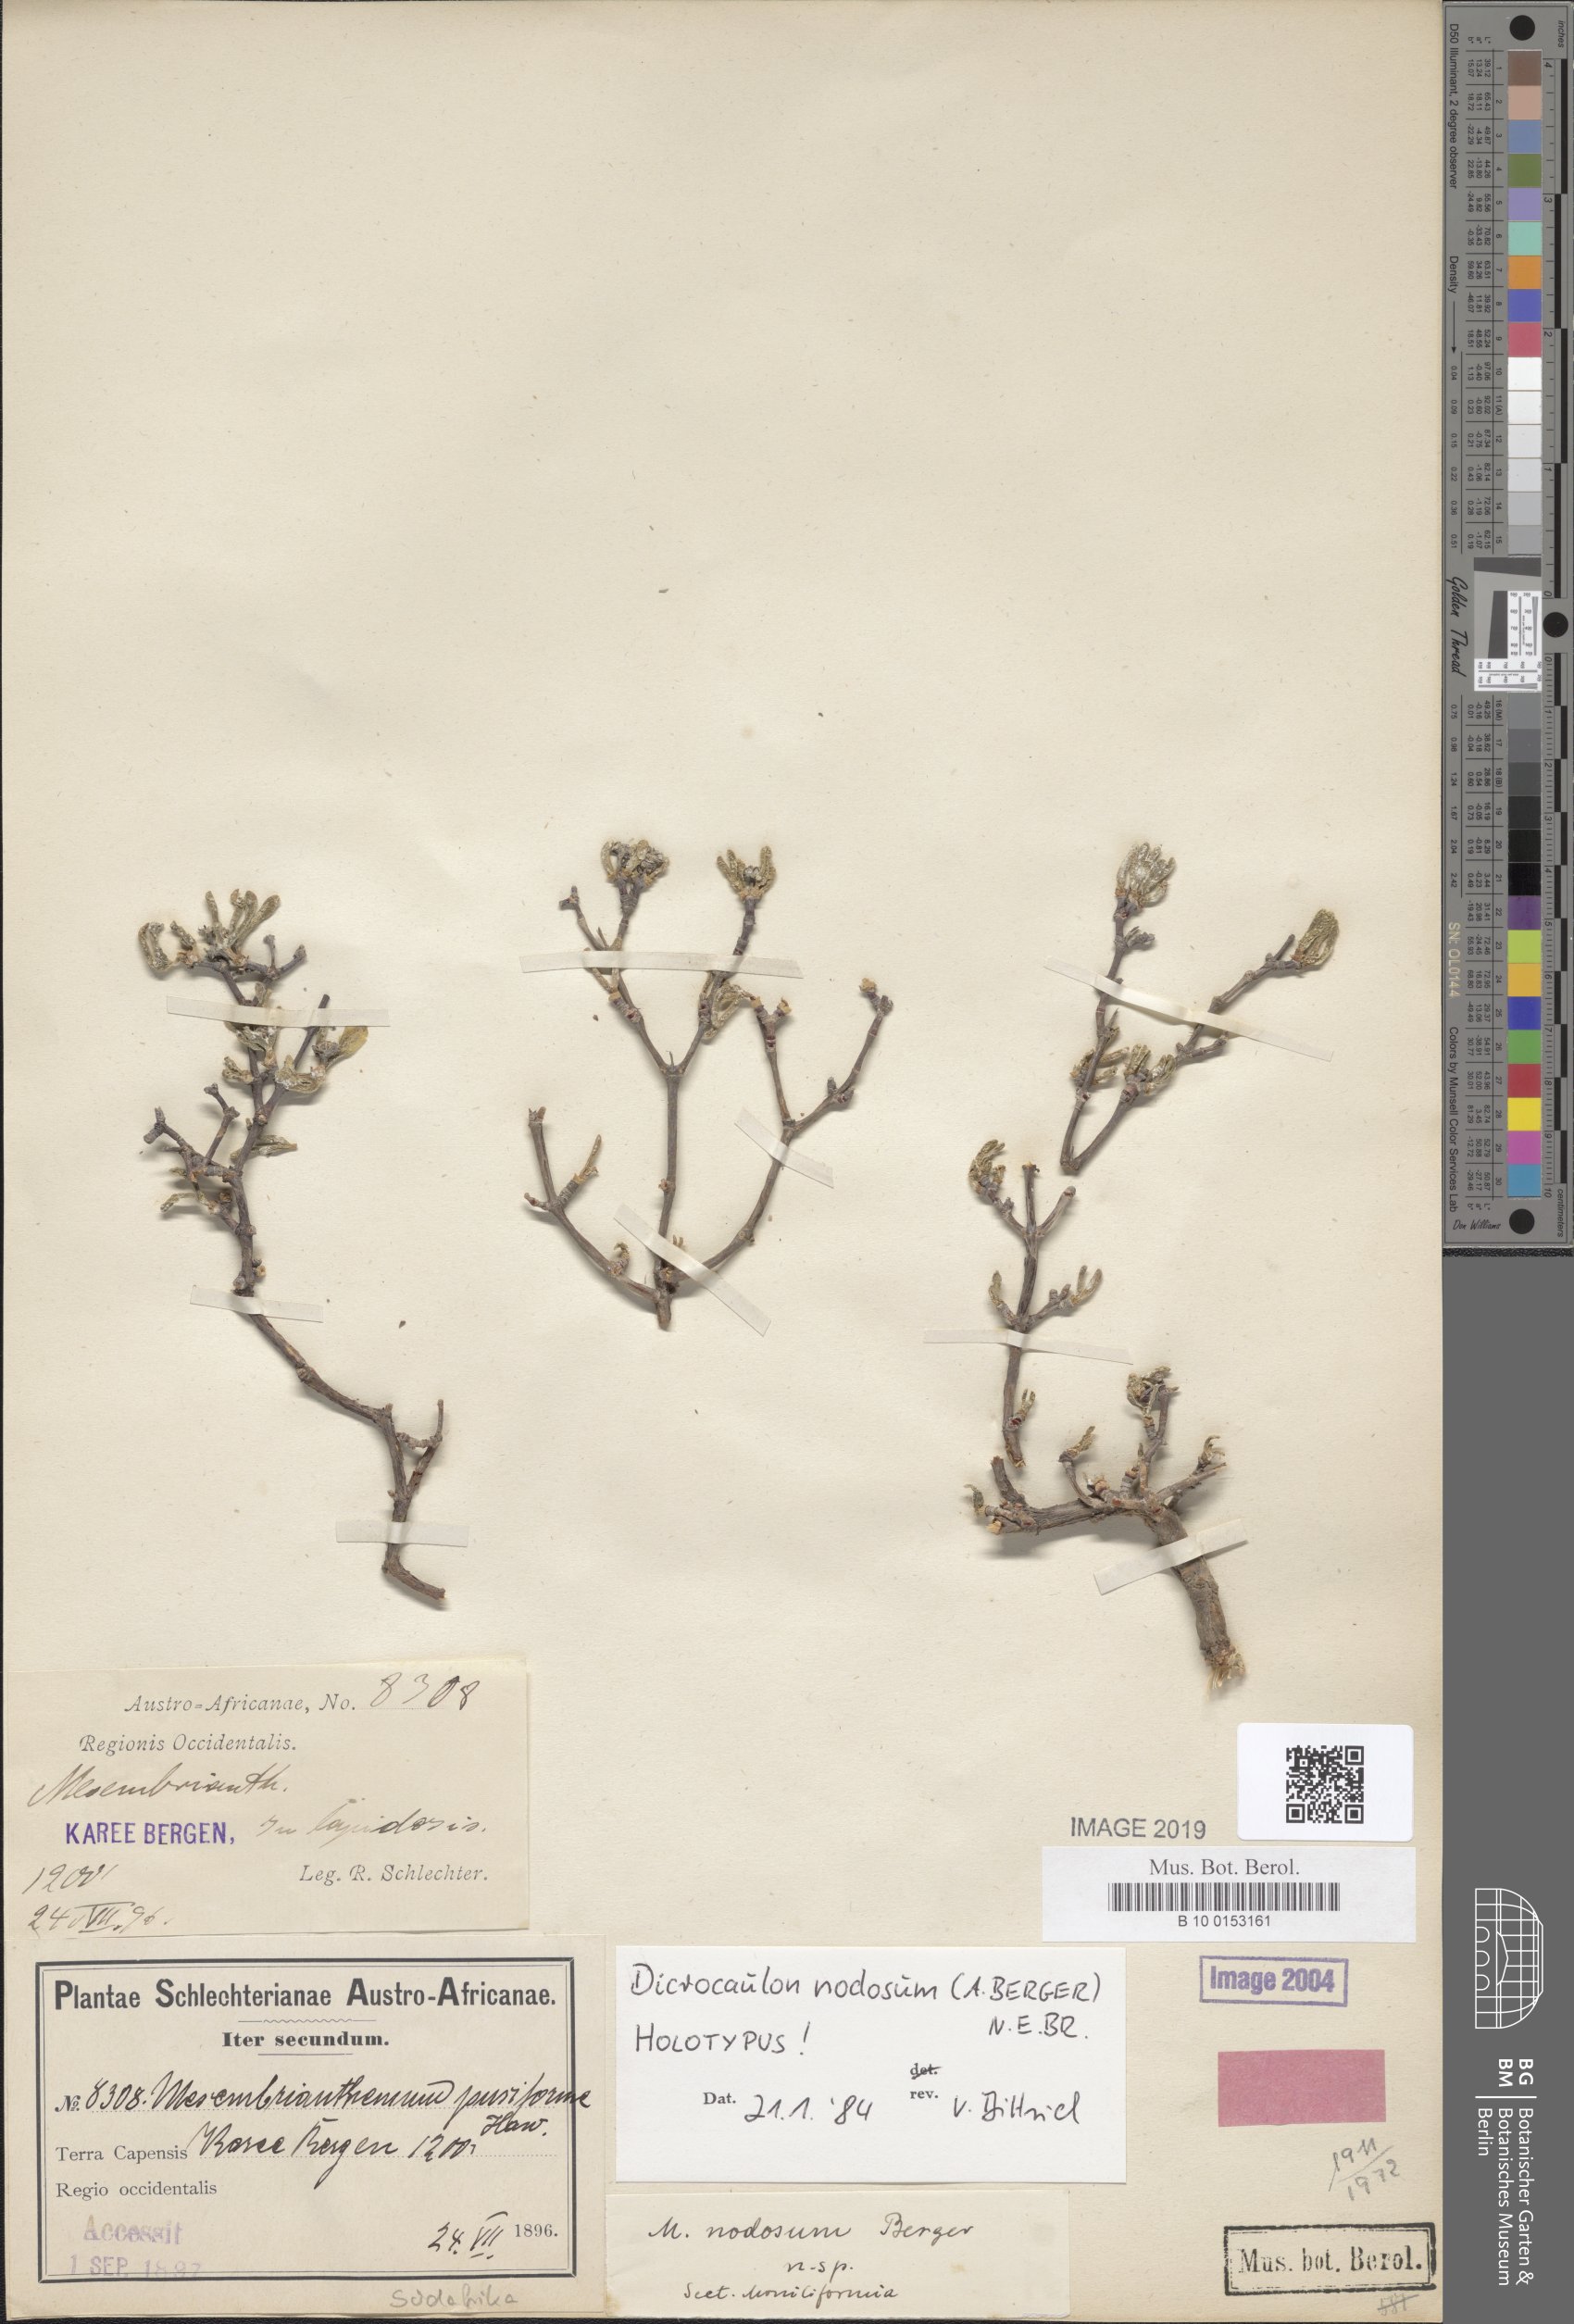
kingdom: Plantae
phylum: Tracheophyta
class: Magnoliopsida
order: Caryophyllales
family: Aizoaceae
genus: Dicrocaulon
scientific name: Dicrocaulon nodosum
